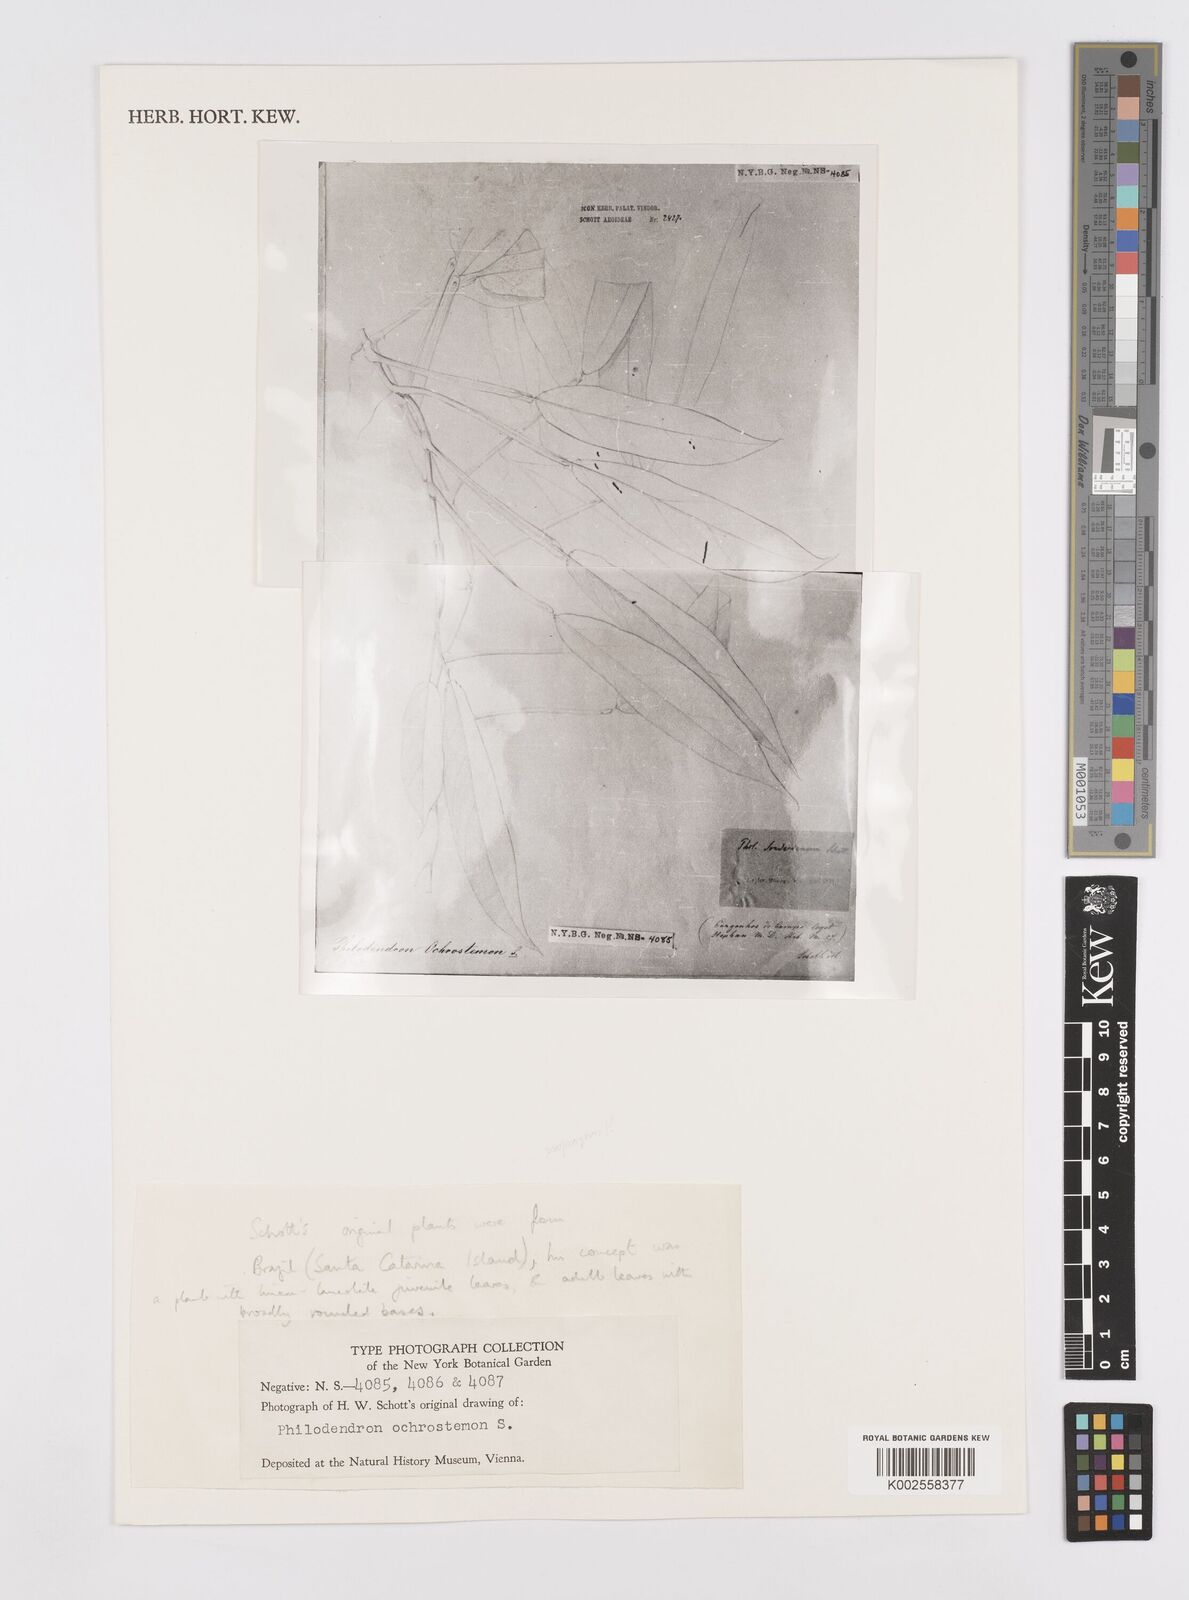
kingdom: Plantae
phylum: Tracheophyta
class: Liliopsida
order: Alismatales
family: Araceae
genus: Philodendron
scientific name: Philodendron ochrostemon
